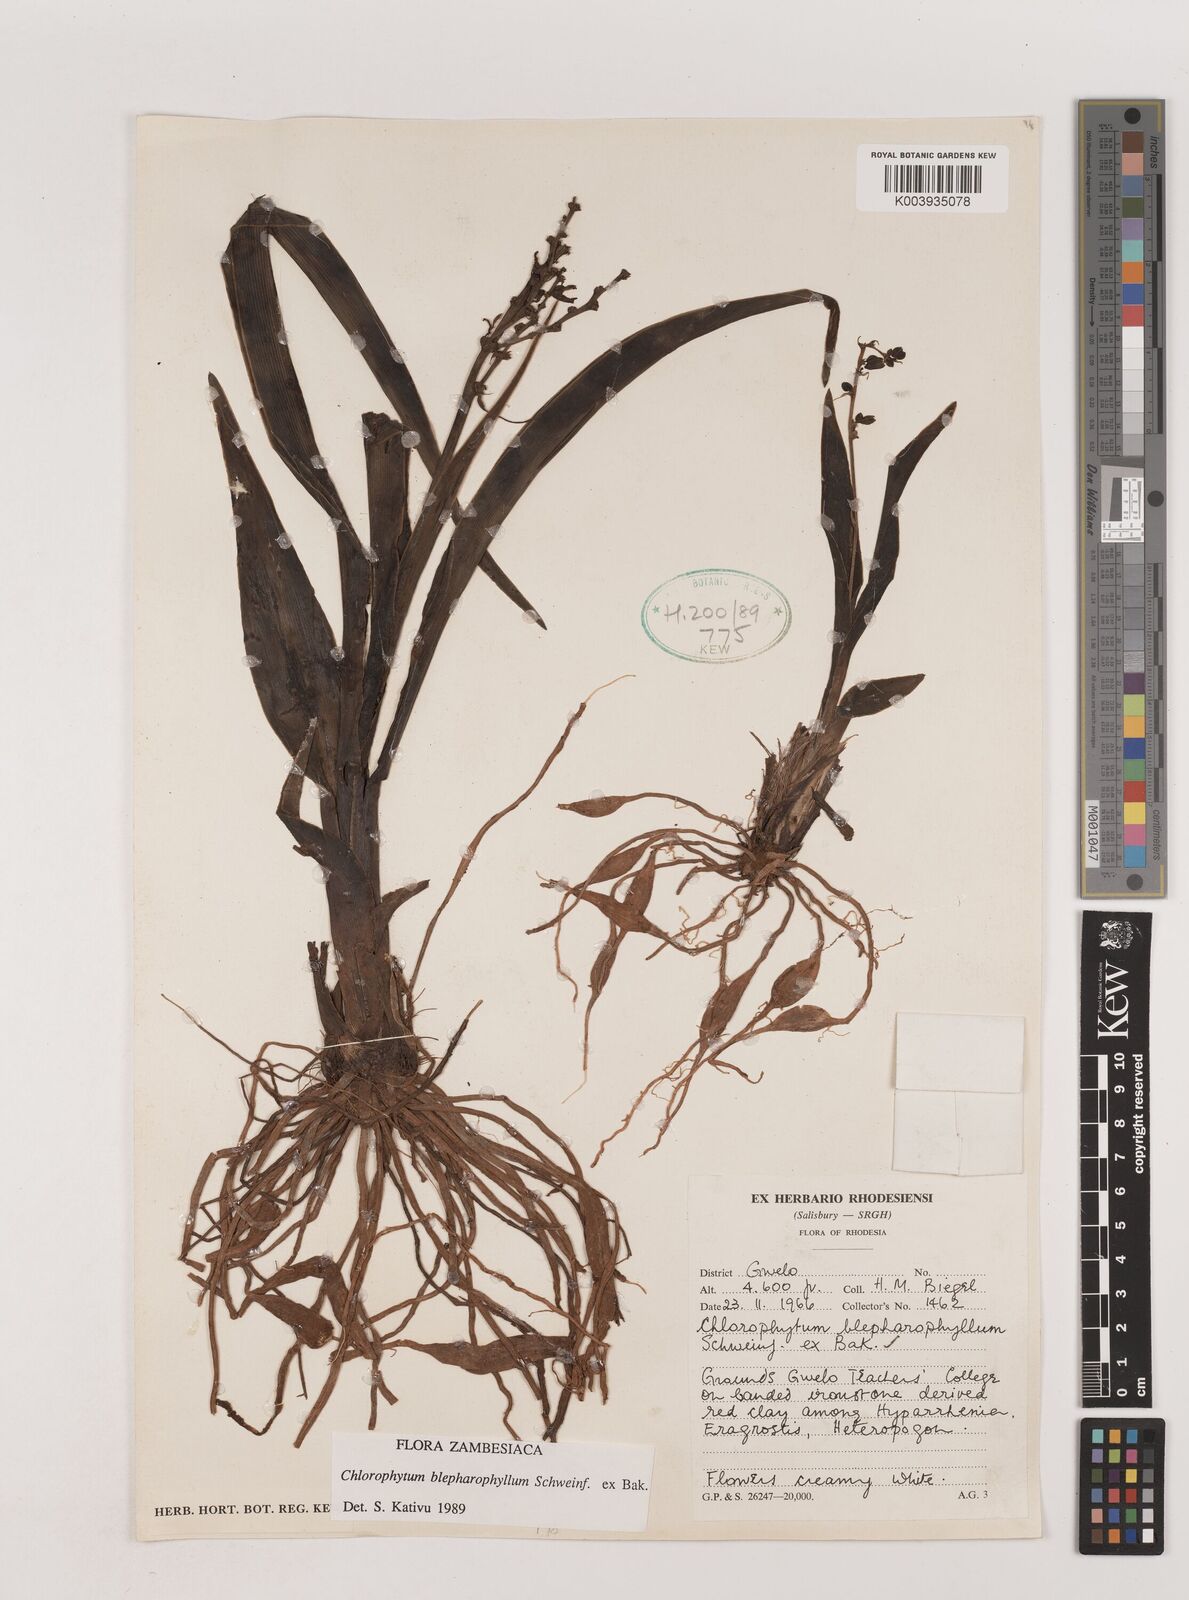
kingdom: Plantae
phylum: Tracheophyta
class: Liliopsida
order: Asparagales
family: Asparagaceae
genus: Chlorophytum
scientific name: Chlorophytum blepharophyllum
